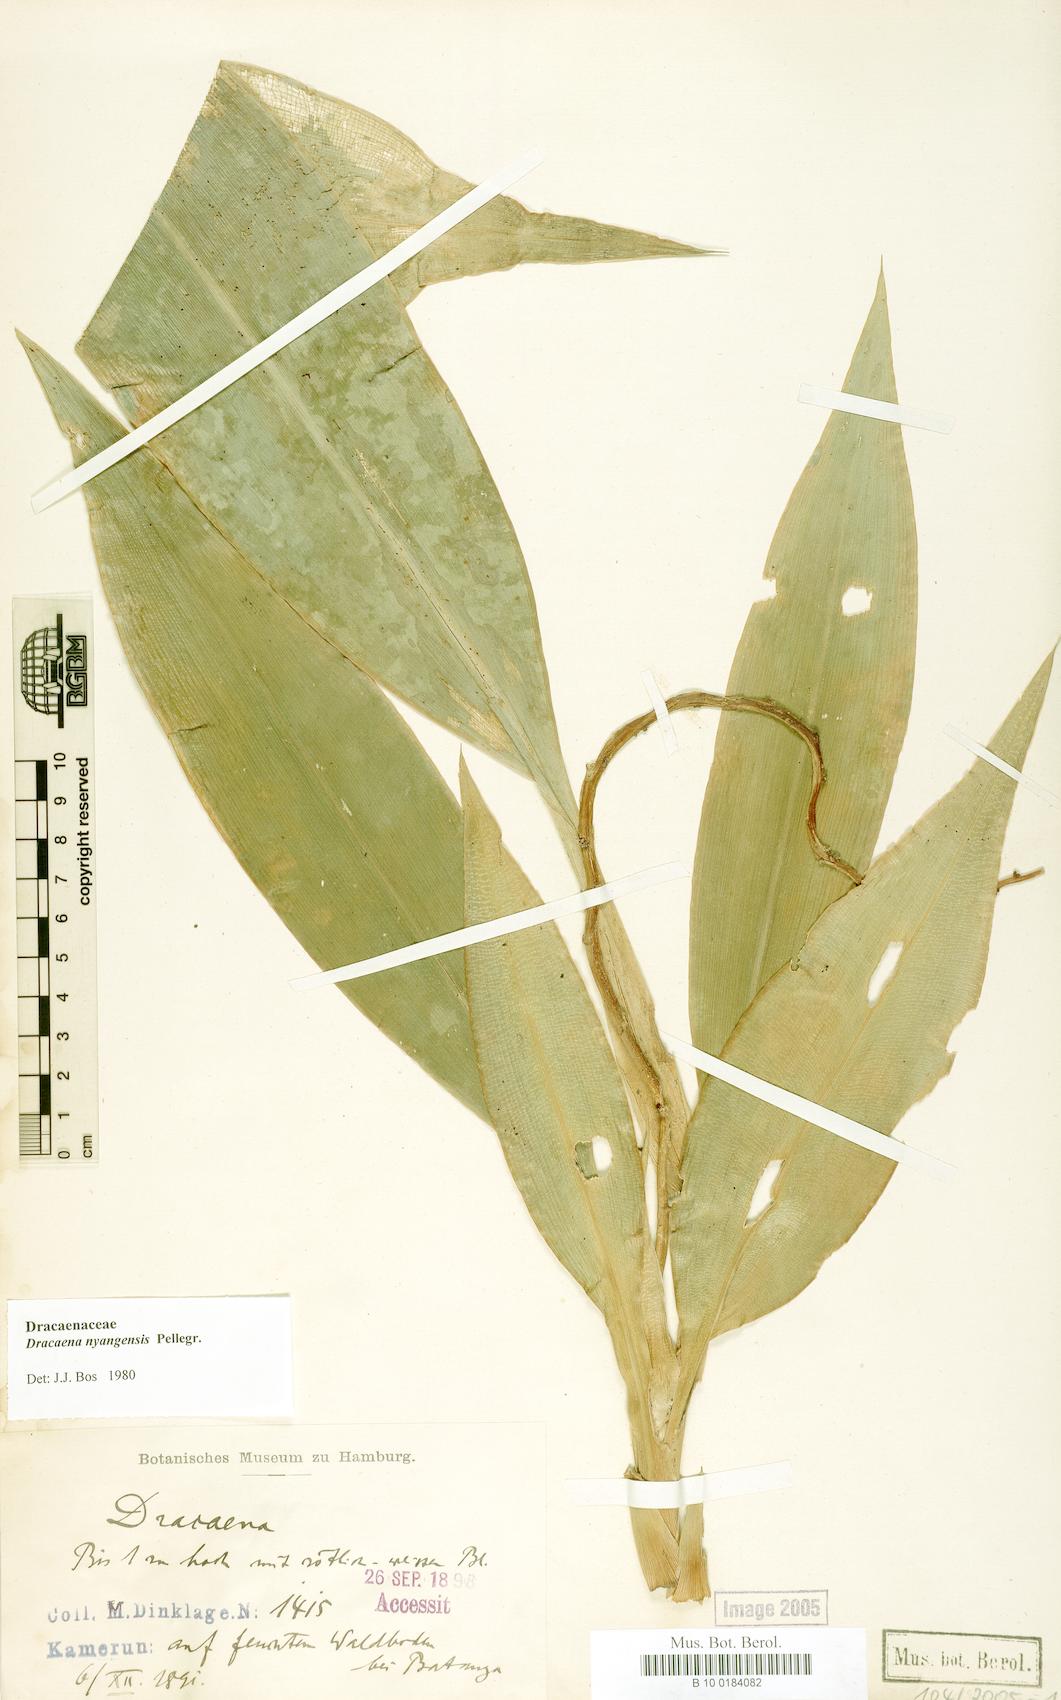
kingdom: Plantae
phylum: Tracheophyta
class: Liliopsida
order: Asparagales
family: Asparagaceae
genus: Dracaena
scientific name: Dracaena nyangensis
